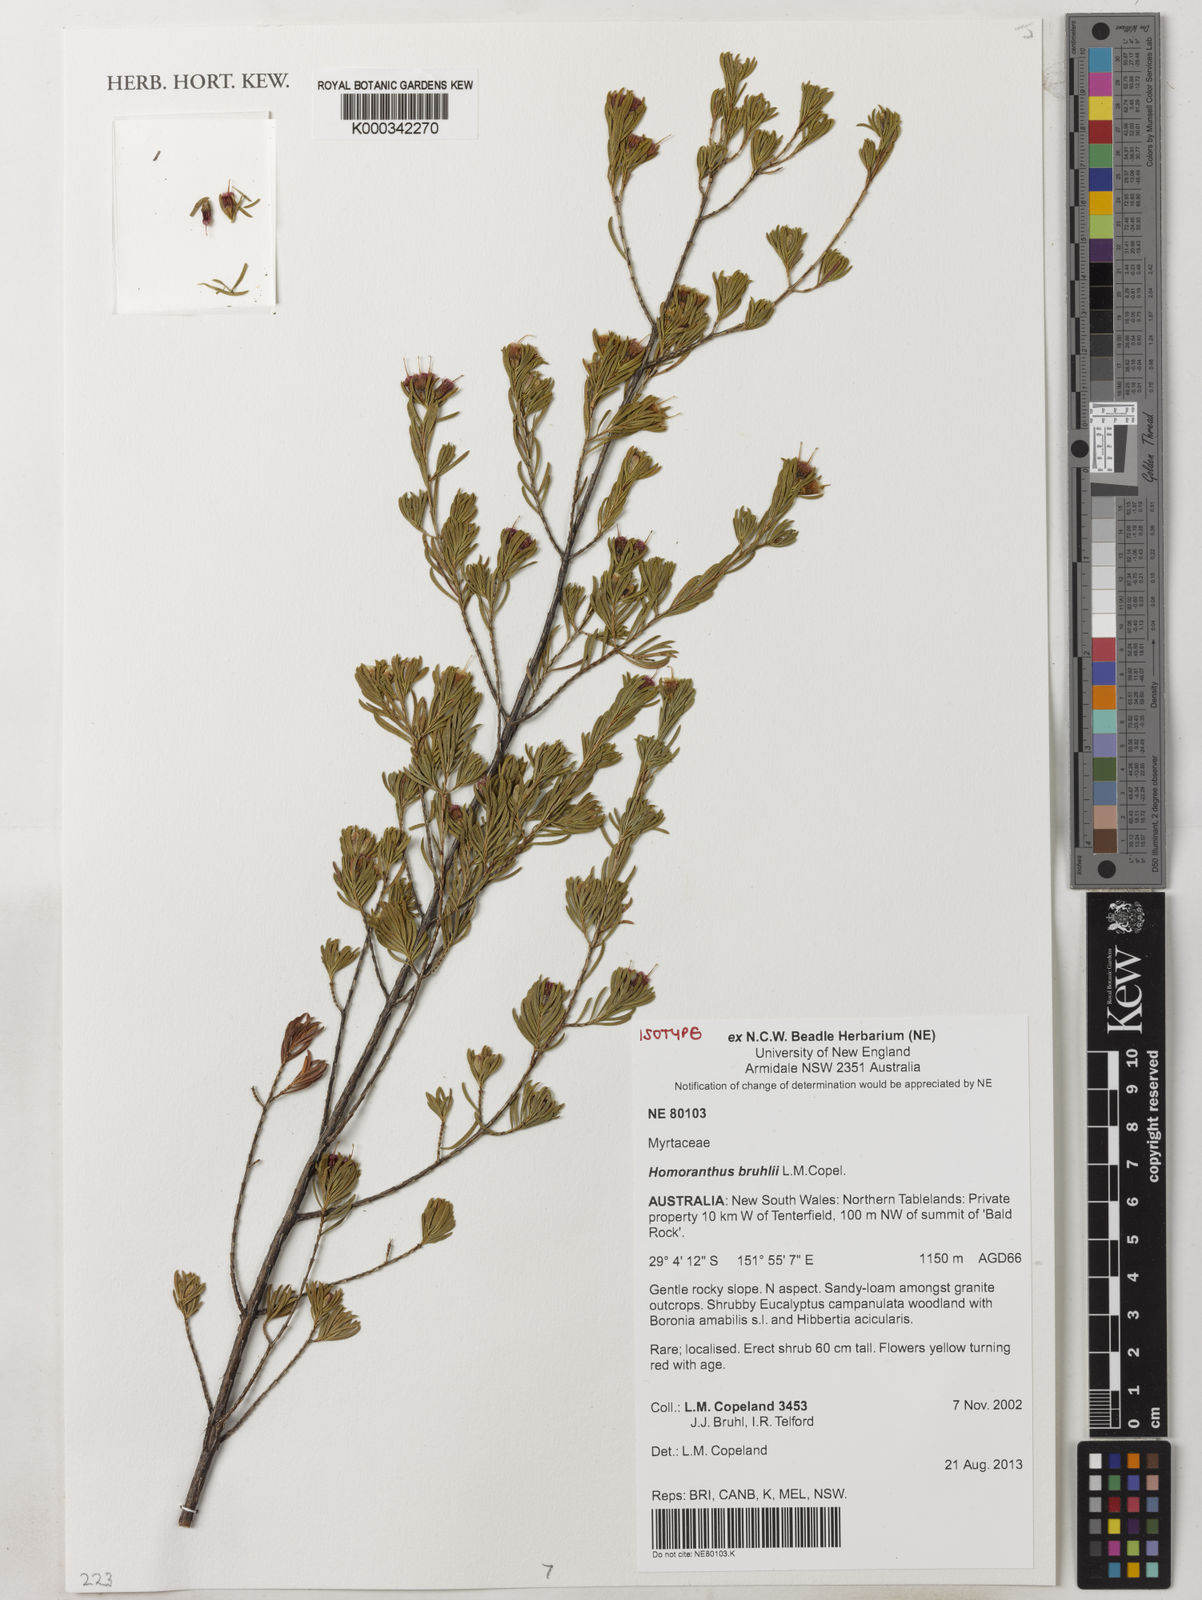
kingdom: Plantae
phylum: Tracheophyta
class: Magnoliopsida
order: Myrtales
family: Myrtaceae
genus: Homoranthus
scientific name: Homoranthus bruhlii
